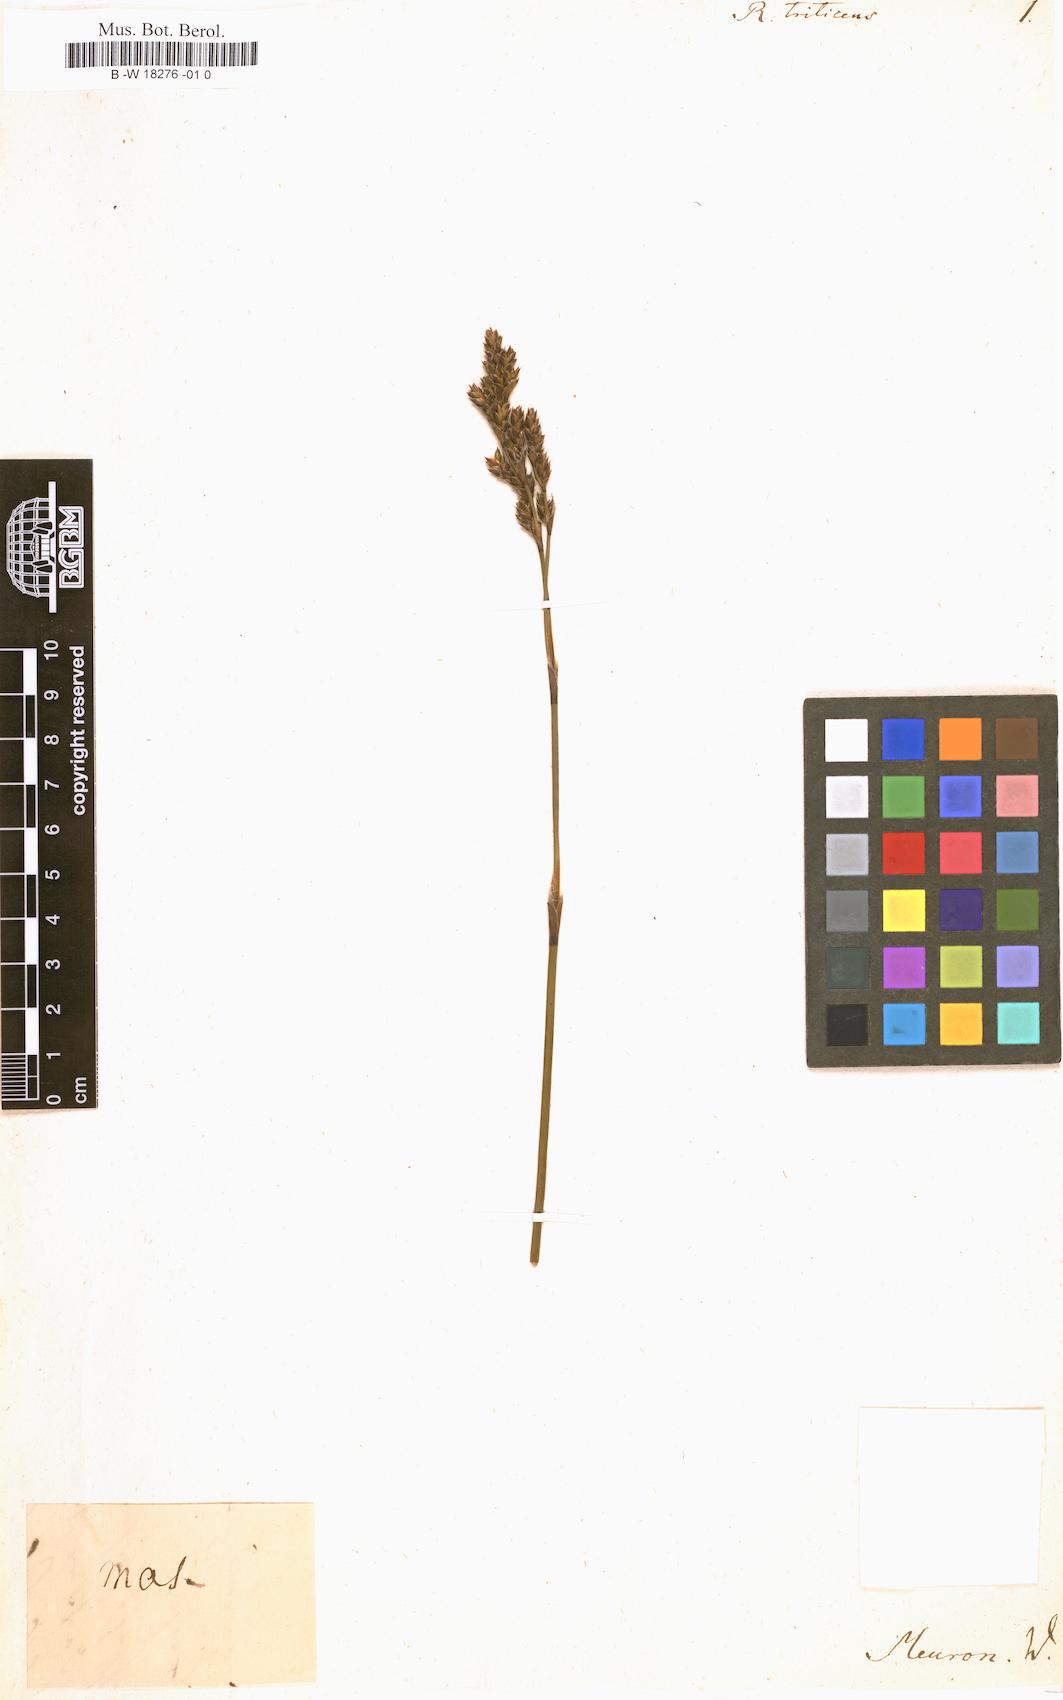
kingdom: Plantae
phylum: Tracheophyta
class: Liliopsida
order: Poales
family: Restionaceae
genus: Restio
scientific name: Restio triticeus
